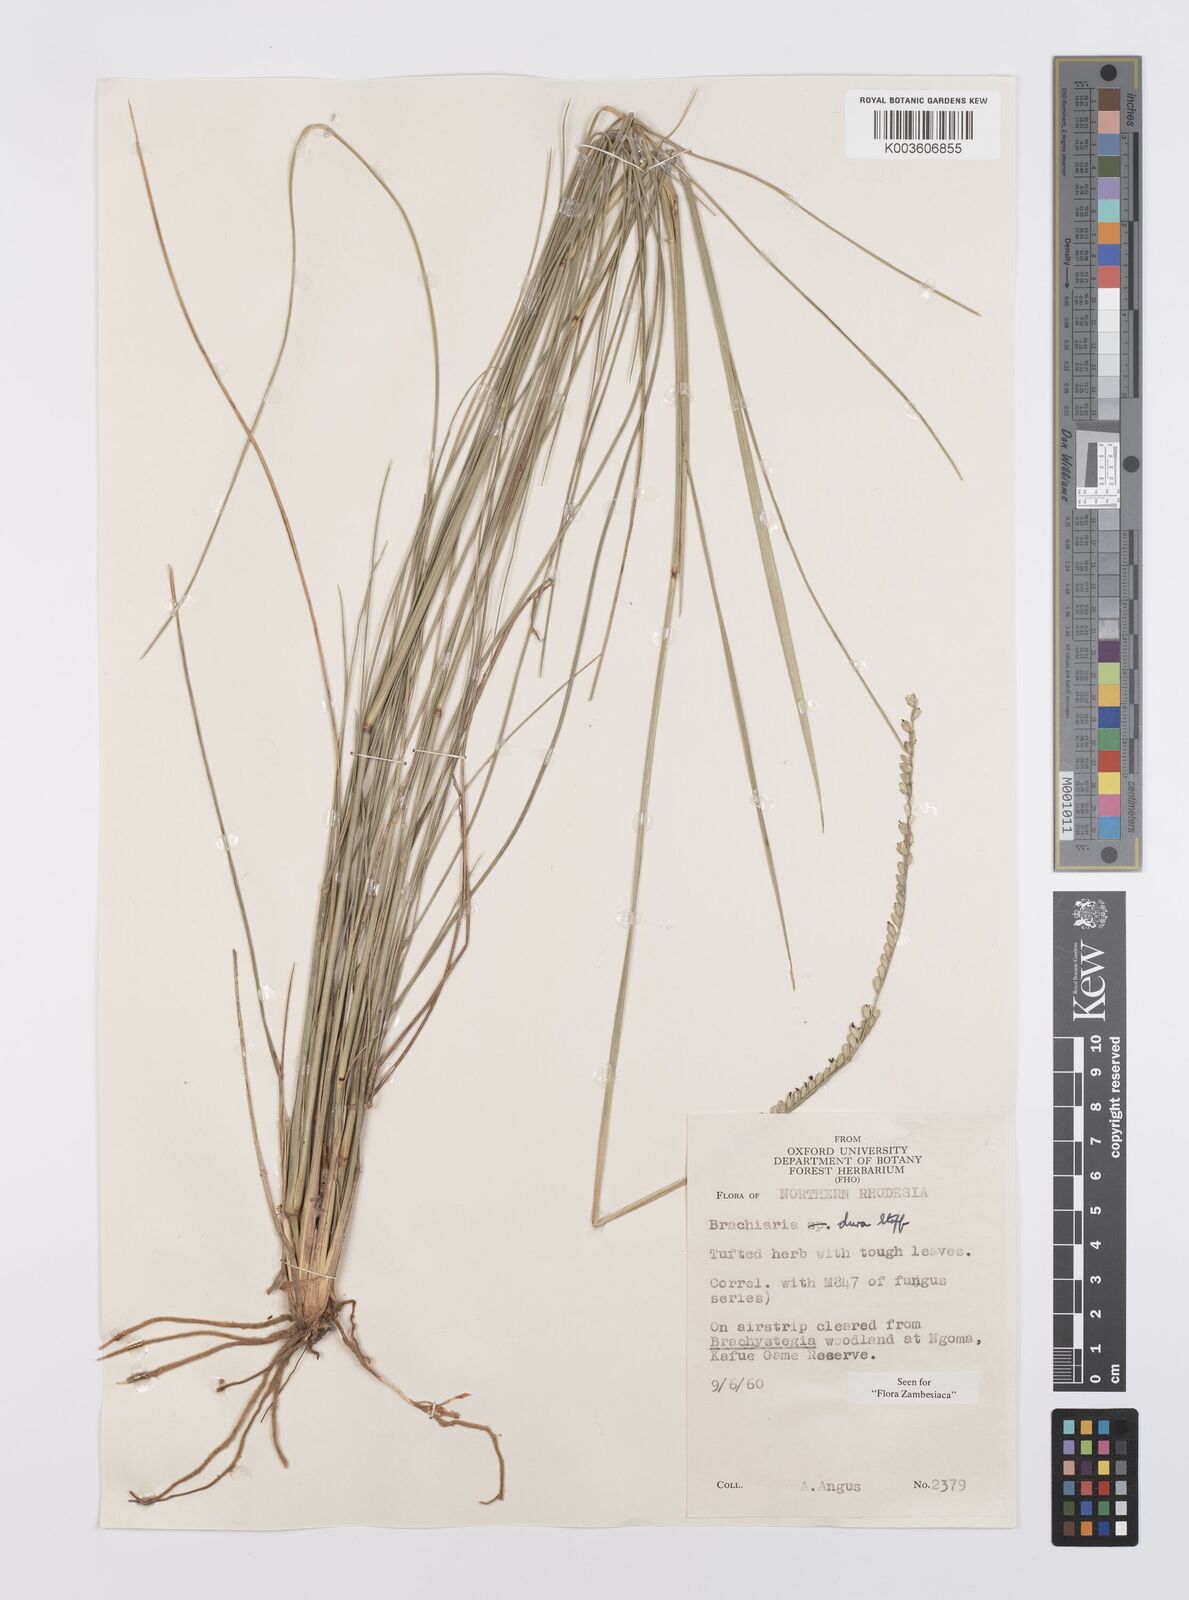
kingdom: Plantae
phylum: Tracheophyta
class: Liliopsida
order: Poales
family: Poaceae
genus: Urochloa
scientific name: Urochloa dura
